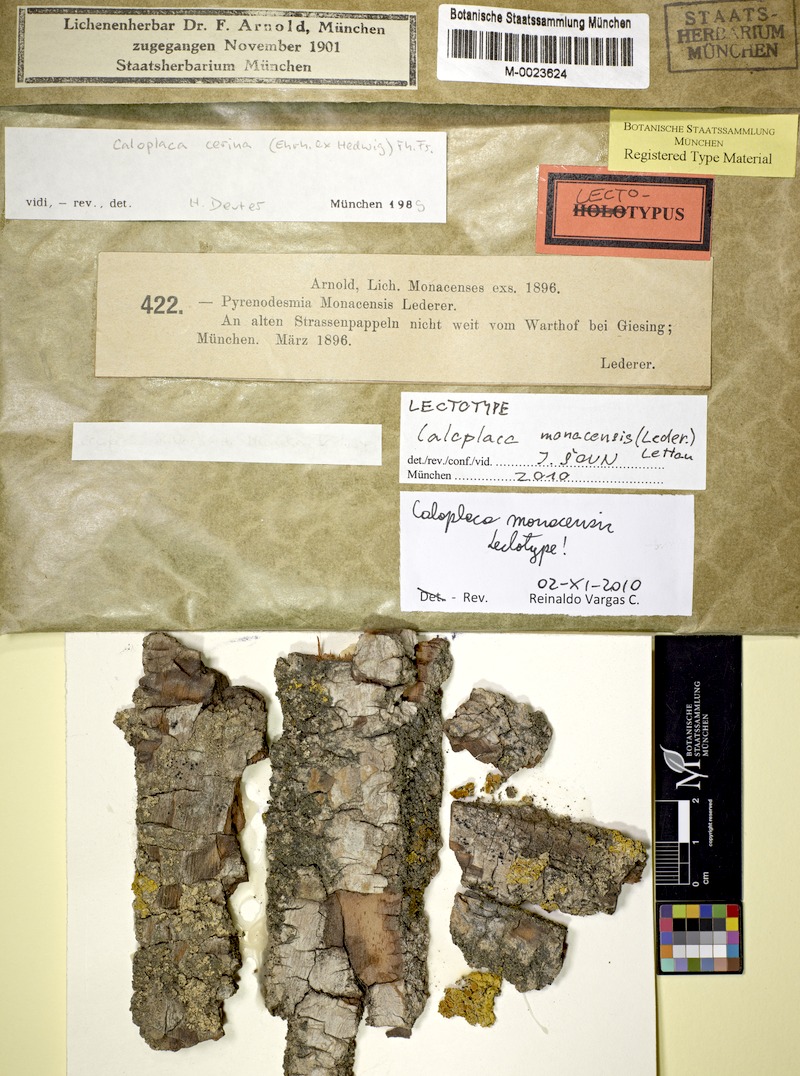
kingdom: Fungi
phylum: Ascomycota
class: Lecanoromycetes
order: Teloschistales
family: Teloschistaceae
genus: Caloplaca
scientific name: Caloplaca monacensis
